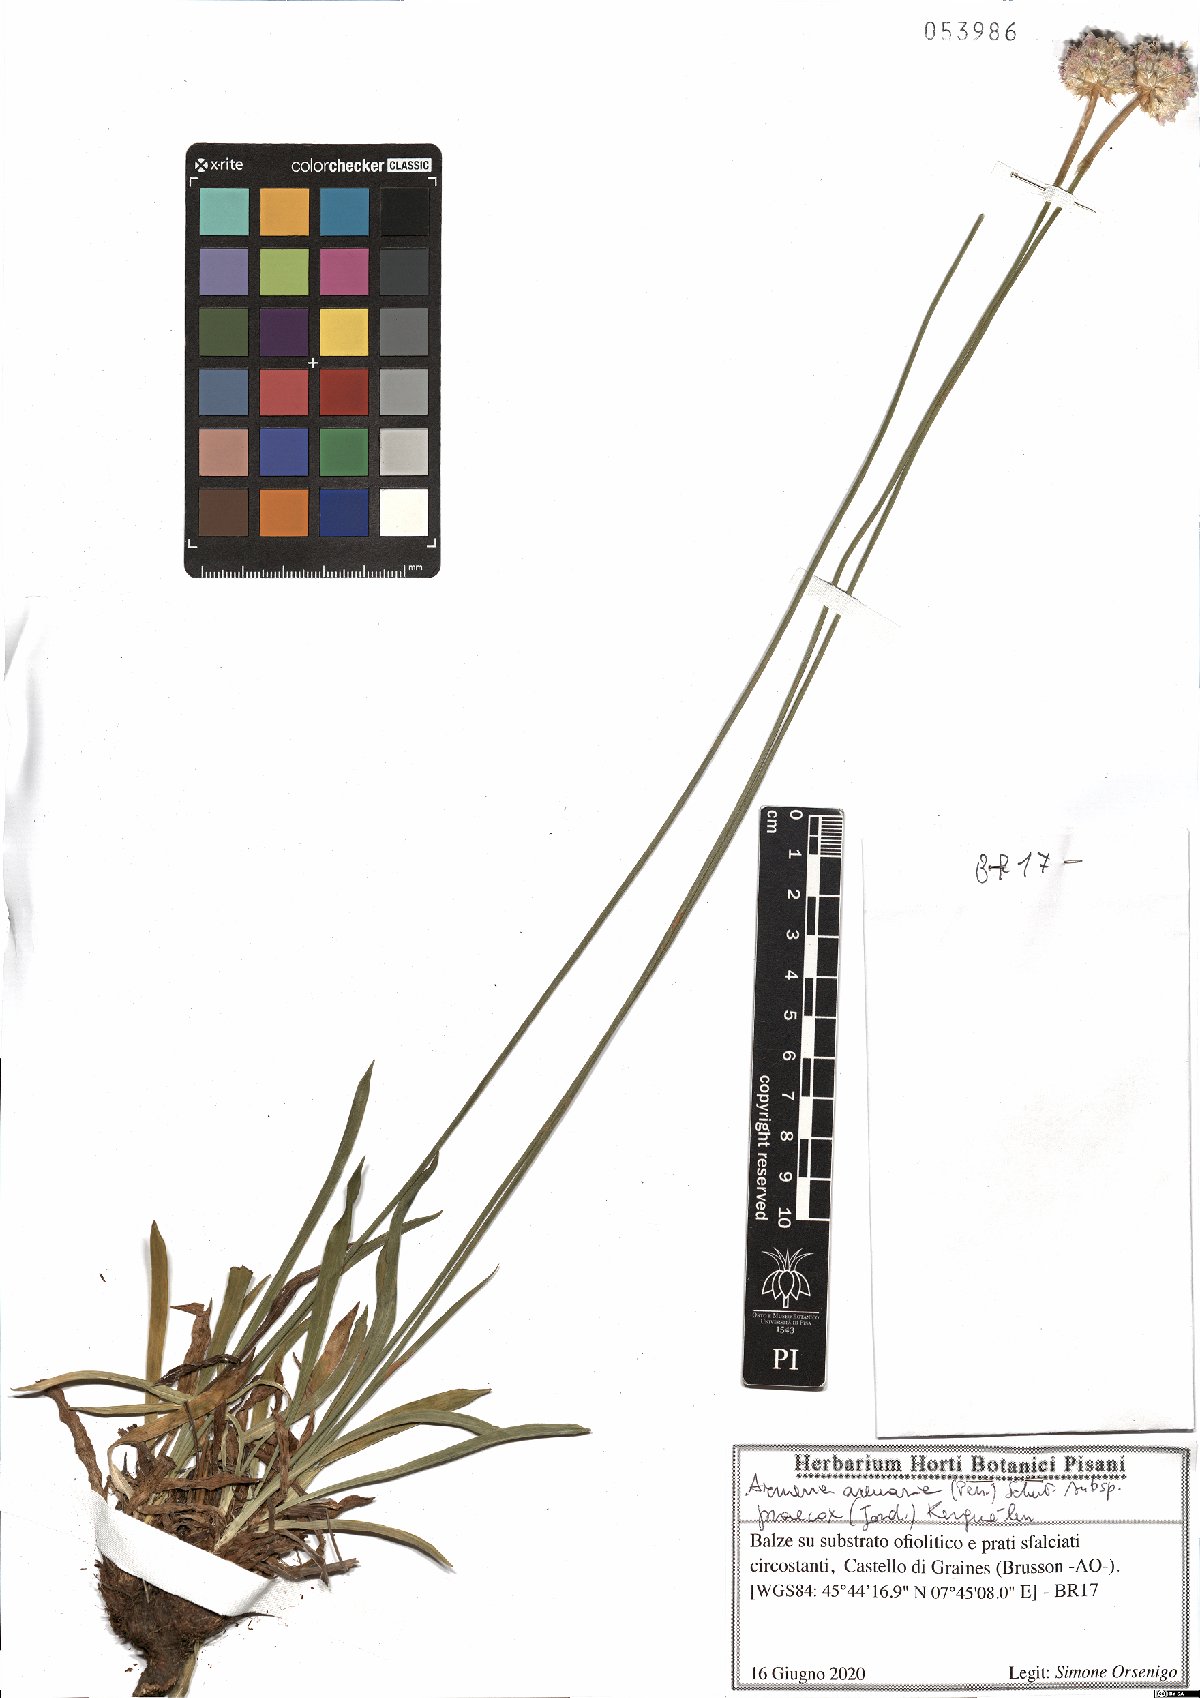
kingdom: Plantae
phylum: Tracheophyta
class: Magnoliopsida
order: Caryophyllales
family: Plumbaginaceae
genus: Armeria
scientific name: Armeria arenaria
